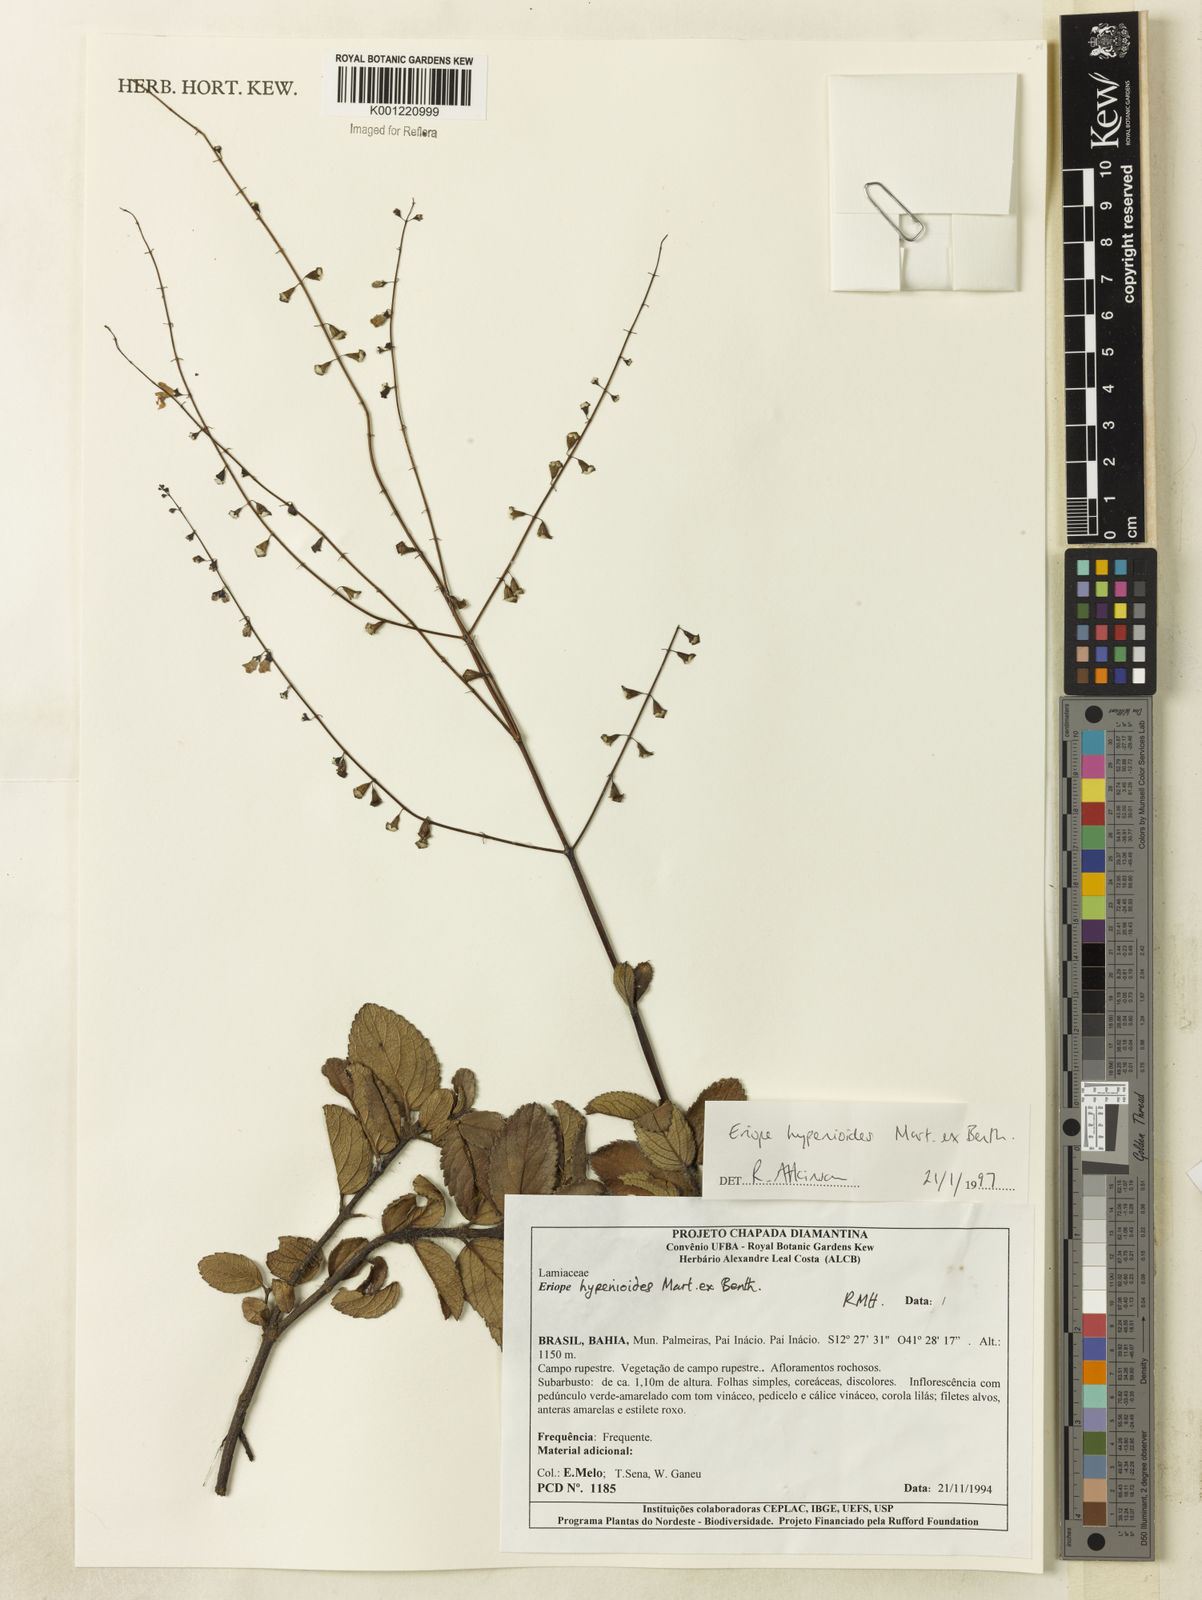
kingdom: Plantae
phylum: Tracheophyta
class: Magnoliopsida
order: Lamiales
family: Lamiaceae
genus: Eriope
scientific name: Eriope hypenioides
